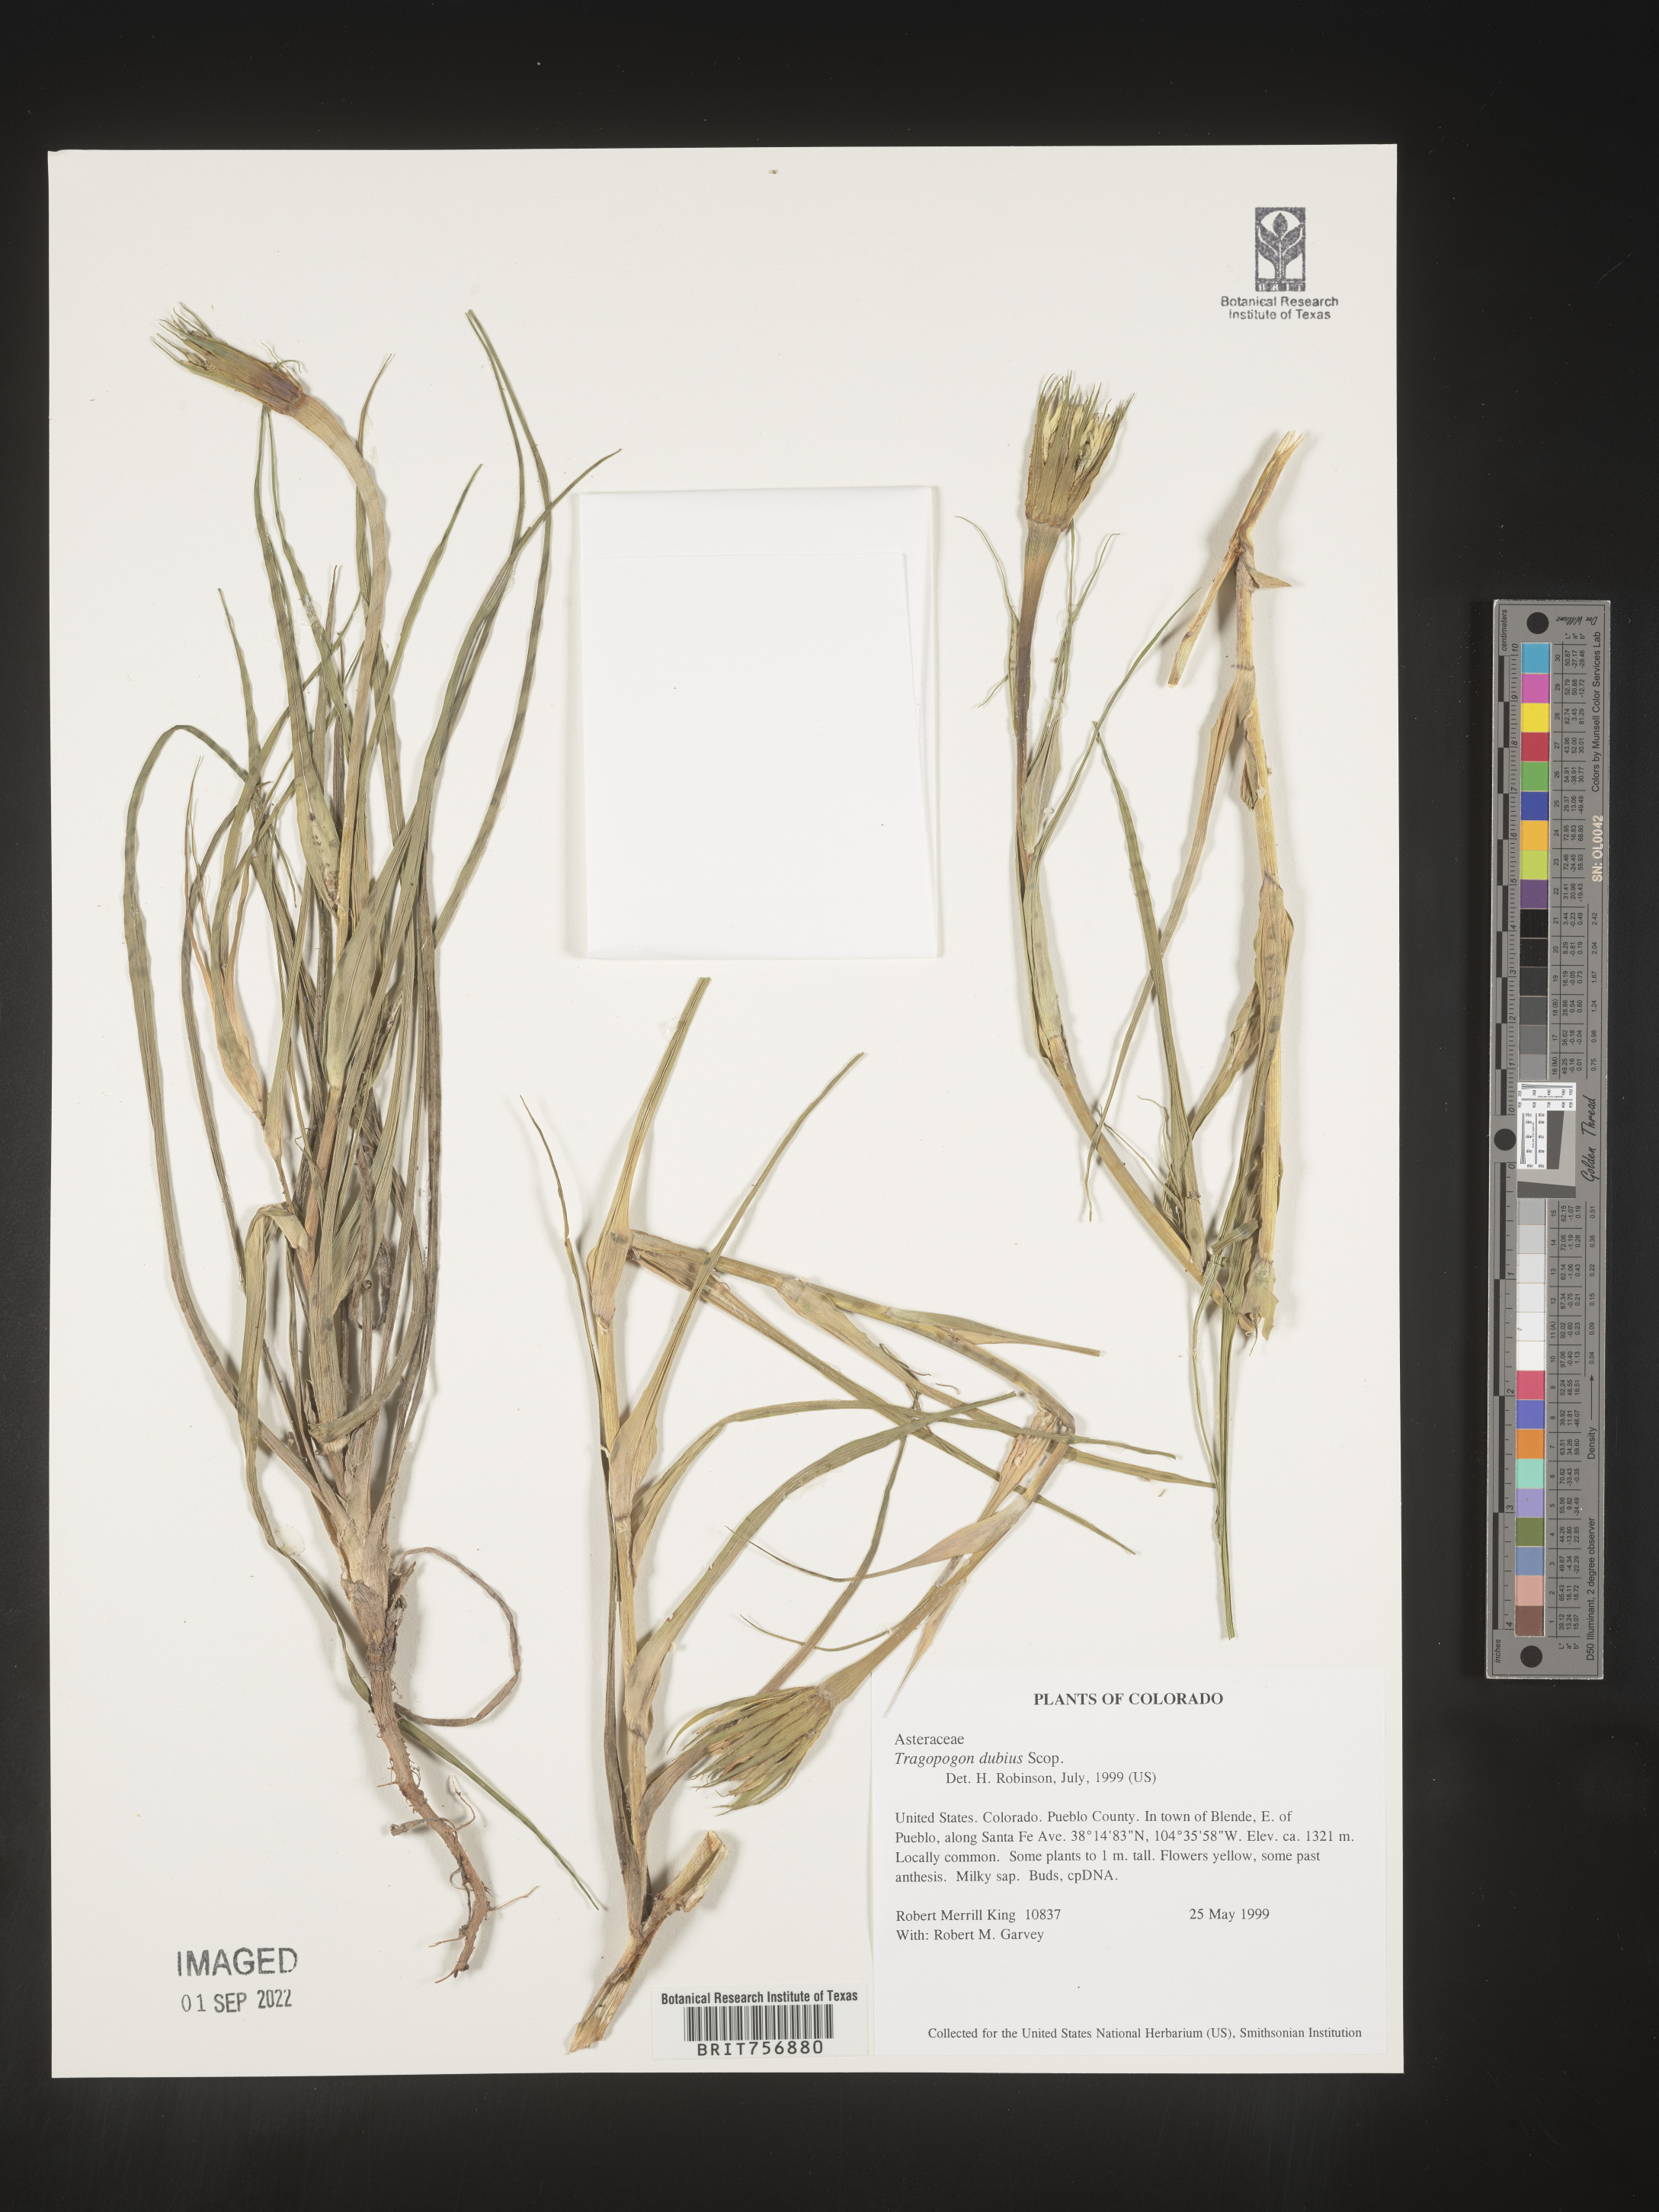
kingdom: Plantae
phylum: Tracheophyta
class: Magnoliopsida
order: Asterales
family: Asteraceae
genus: Tragopogon
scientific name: Tragopogon dubius
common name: Yellow salsify
